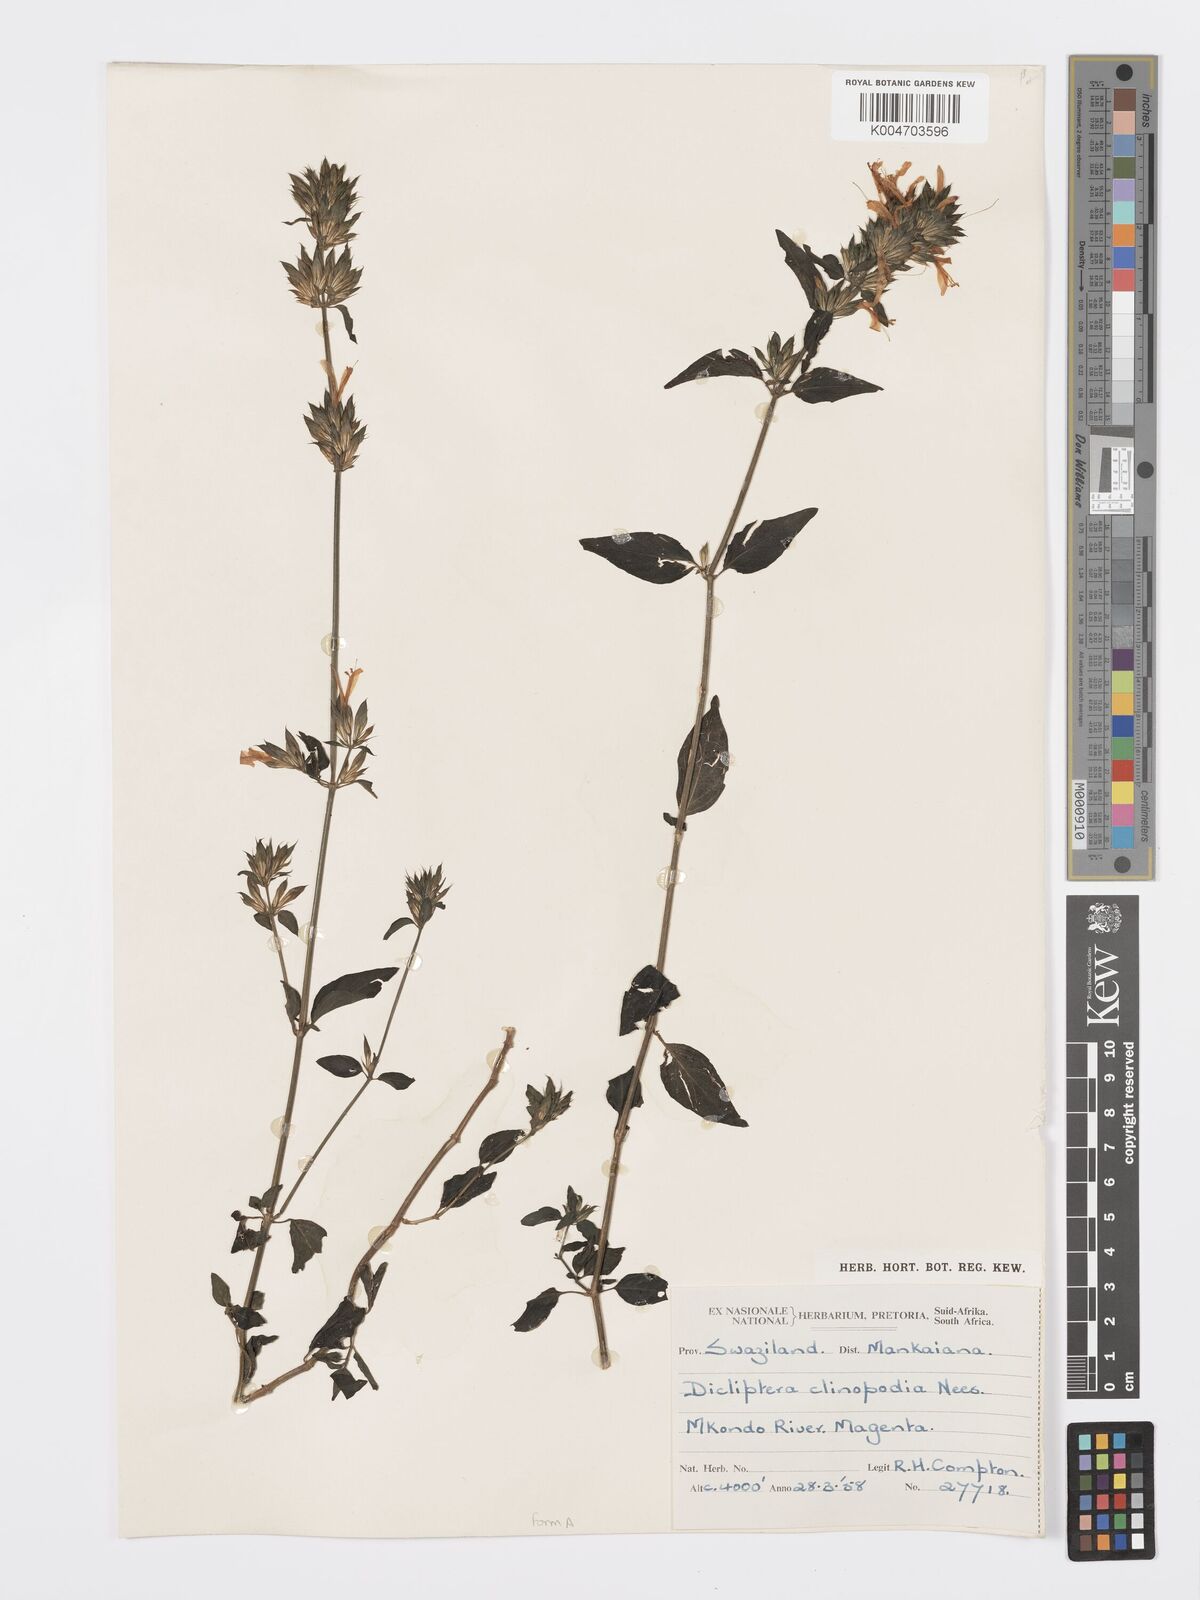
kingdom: Plantae
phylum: Tracheophyta
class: Magnoliopsida
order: Lamiales
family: Acanthaceae
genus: Dicliptera
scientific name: Dicliptera clinopodia
